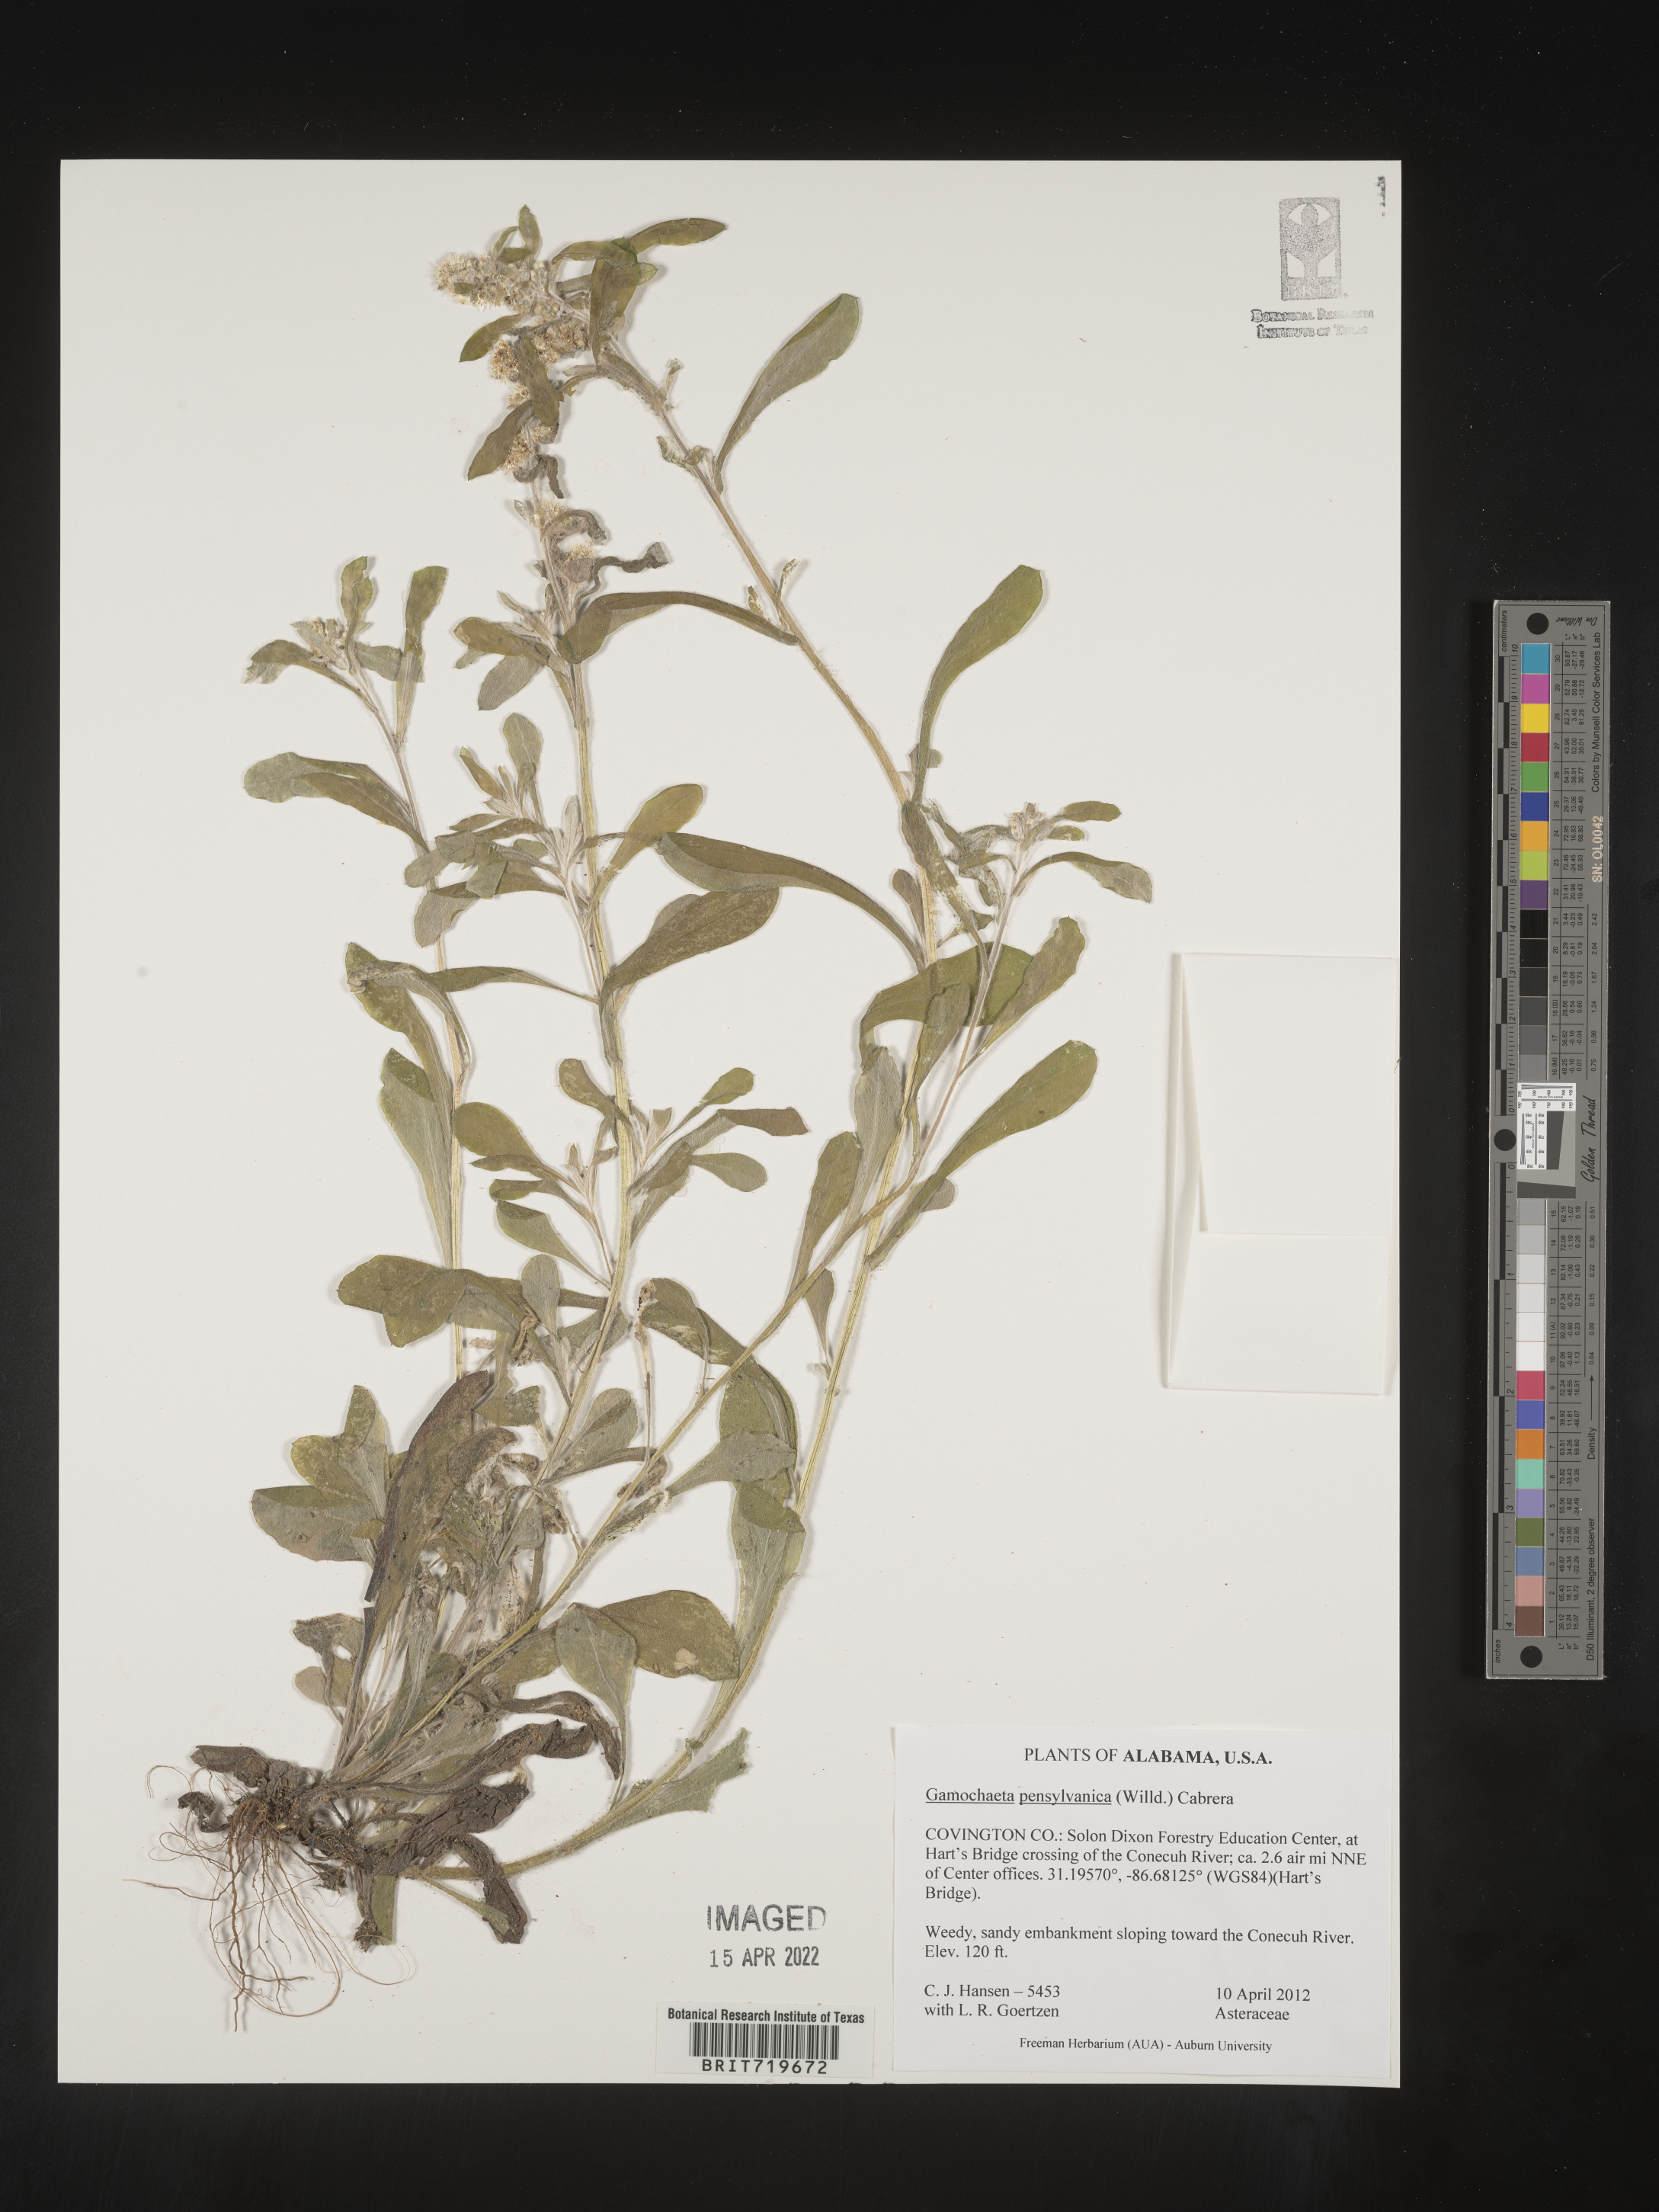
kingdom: Plantae
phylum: Tracheophyta
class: Magnoliopsida
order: Asterales
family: Asteraceae
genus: Gamochaeta
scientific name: Gamochaeta pensylvanica
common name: Pennsylvania everlasting
